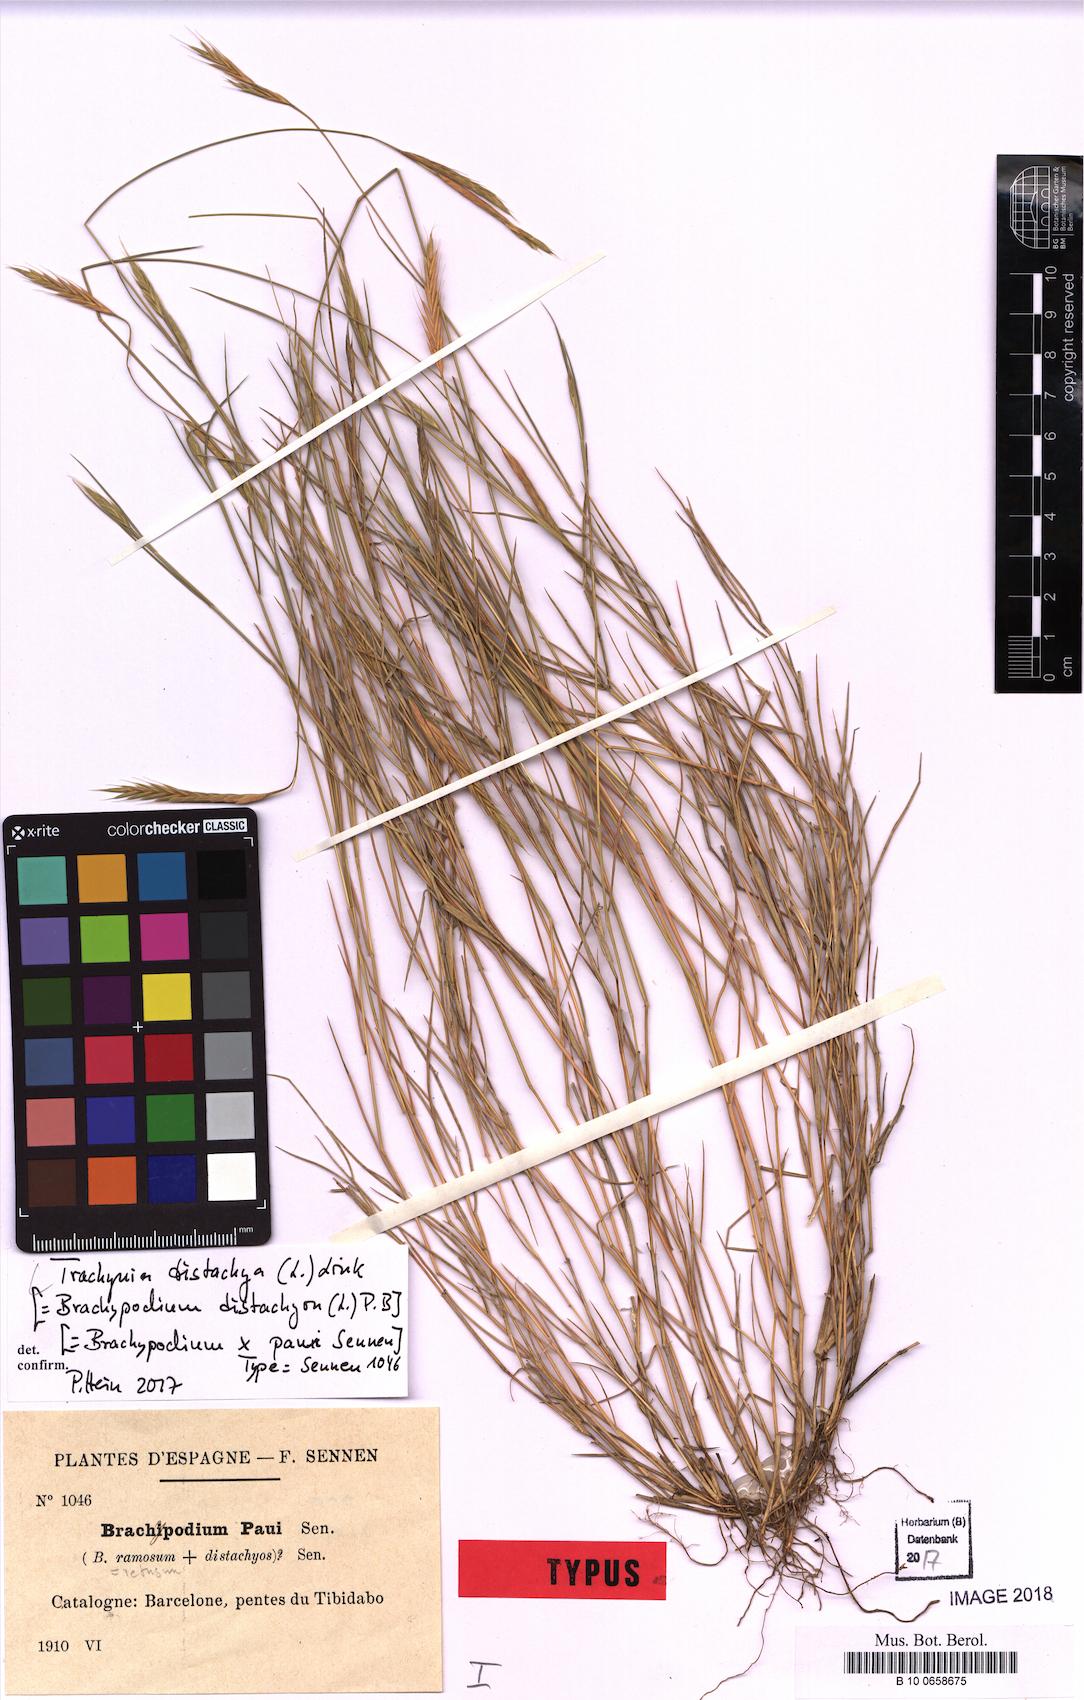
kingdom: Plantae
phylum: Tracheophyta
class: Liliopsida
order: Poales
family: Poaceae
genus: Brachypodium
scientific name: Brachypodium distachyon
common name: Stiff brome
